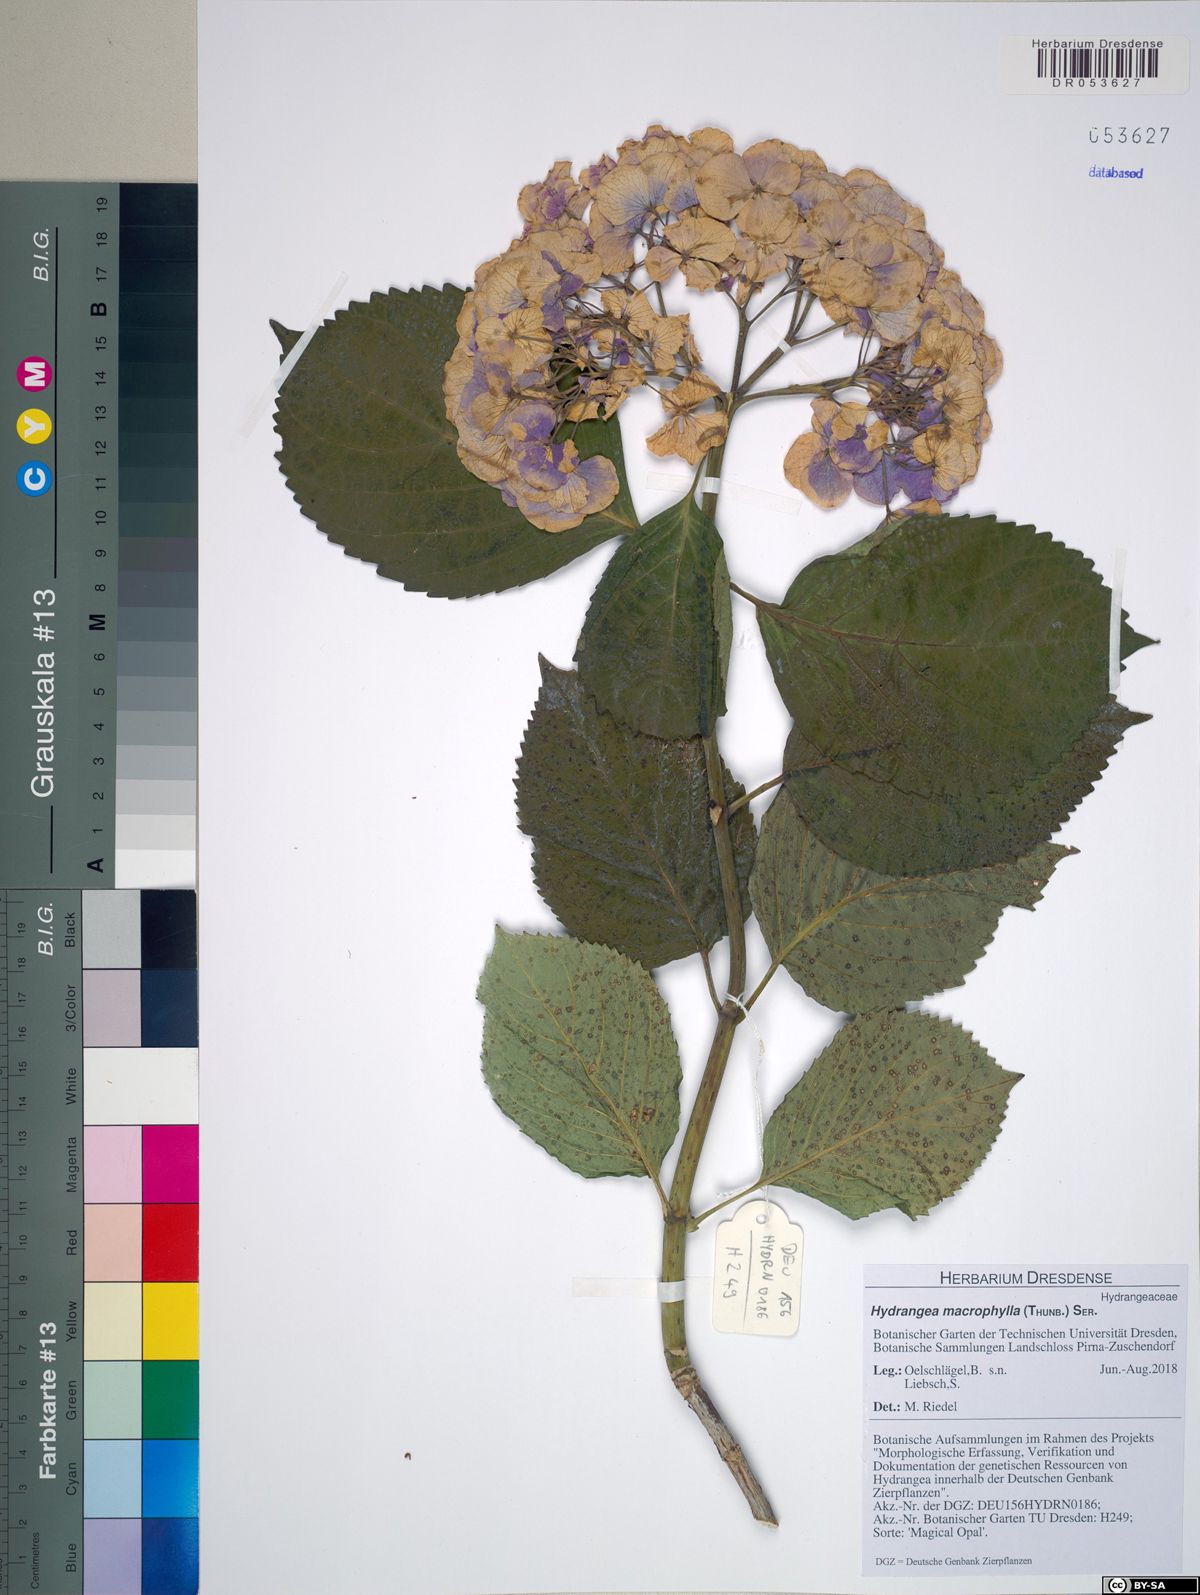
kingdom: Plantae
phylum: Tracheophyta
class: Magnoliopsida
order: Cornales
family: Hydrangeaceae
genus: Hydrangea
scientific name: Hydrangea macrophylla
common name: Hydrangea
